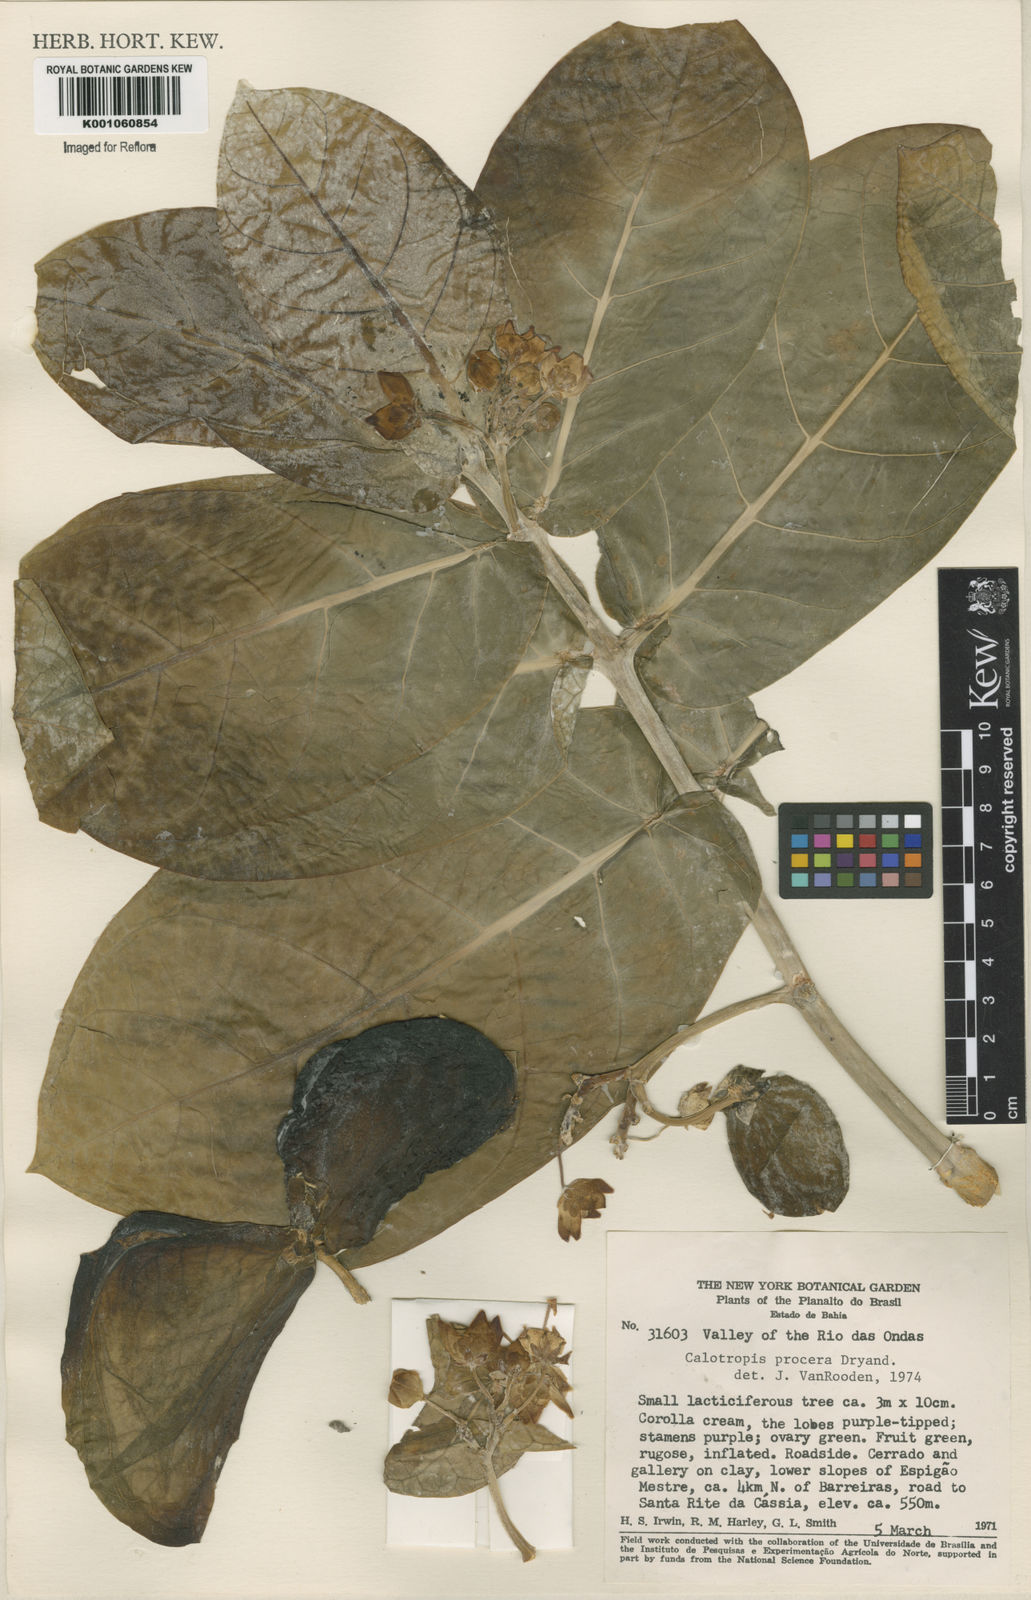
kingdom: Plantae
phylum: Tracheophyta
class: Magnoliopsida
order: Gentianales
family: Apocynaceae
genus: Calotropis
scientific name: Calotropis procera
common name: Roostertree
